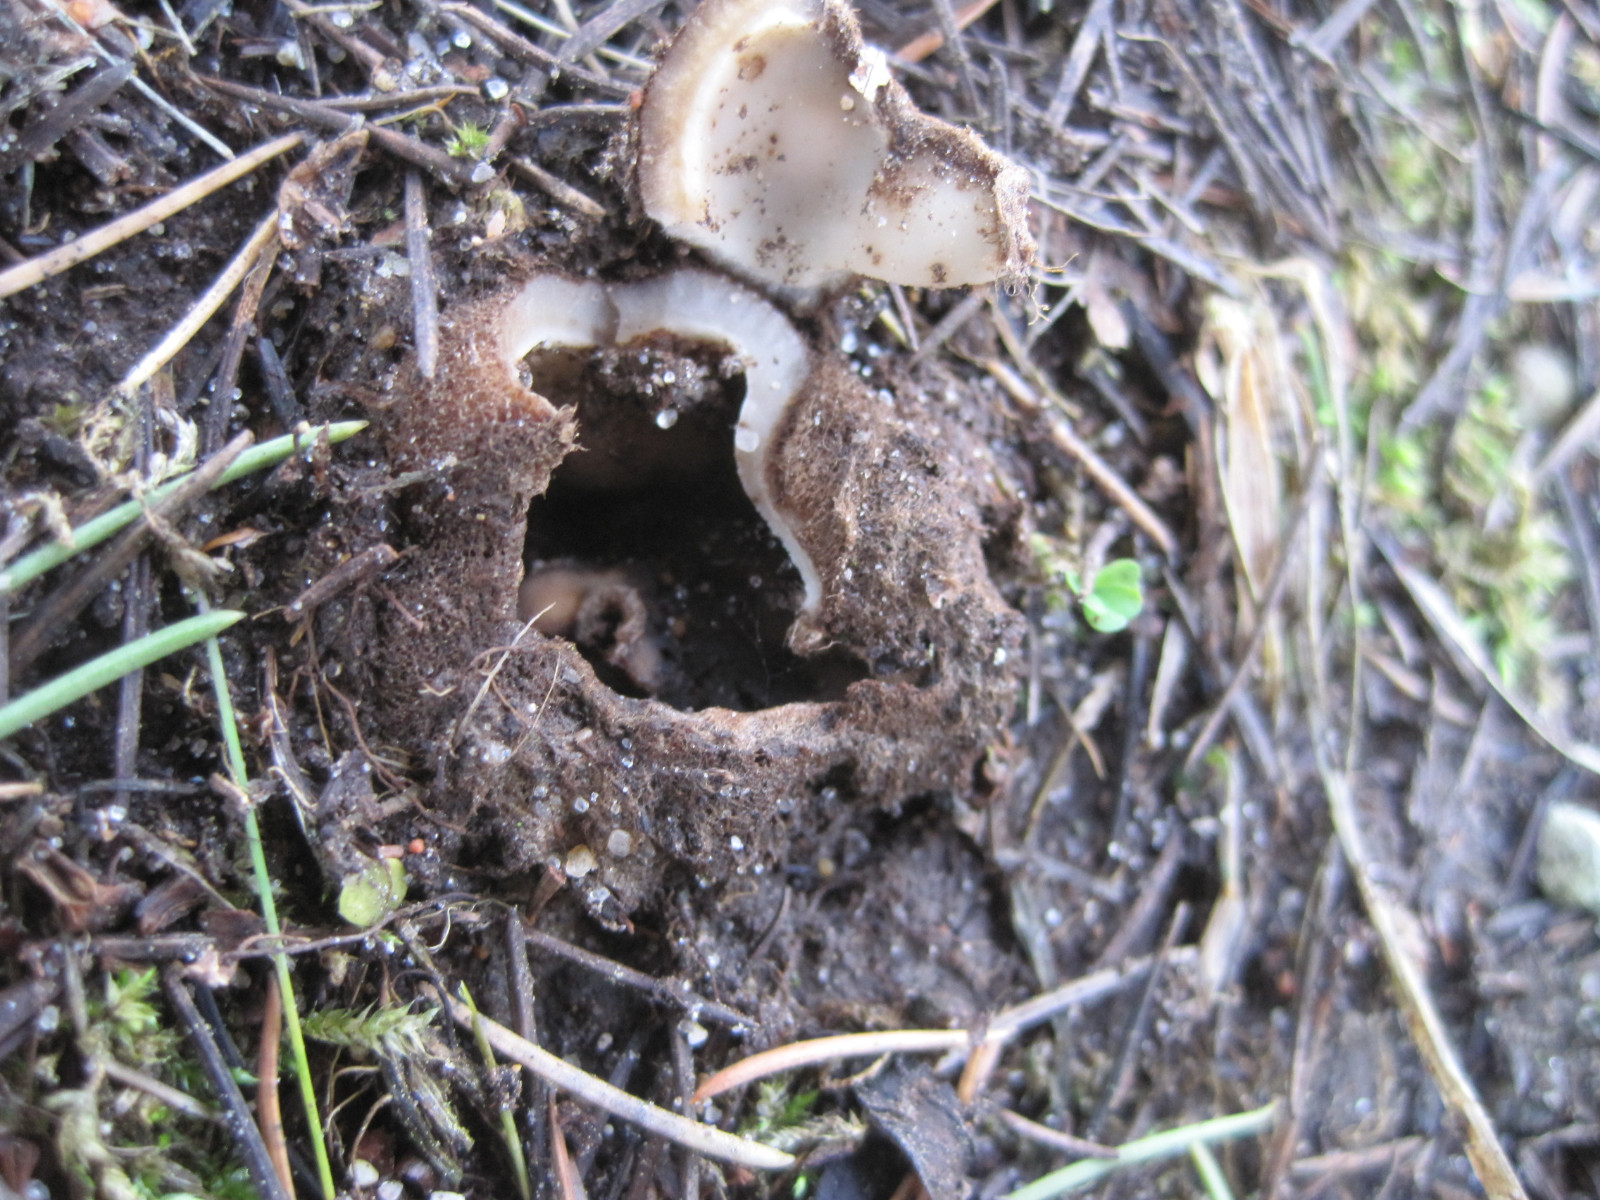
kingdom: Fungi
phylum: Ascomycota
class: Pezizomycetes
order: Pezizales
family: Pyronemataceae
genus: Geopora
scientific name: Geopora sumneriana
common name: vår-jordbæger
